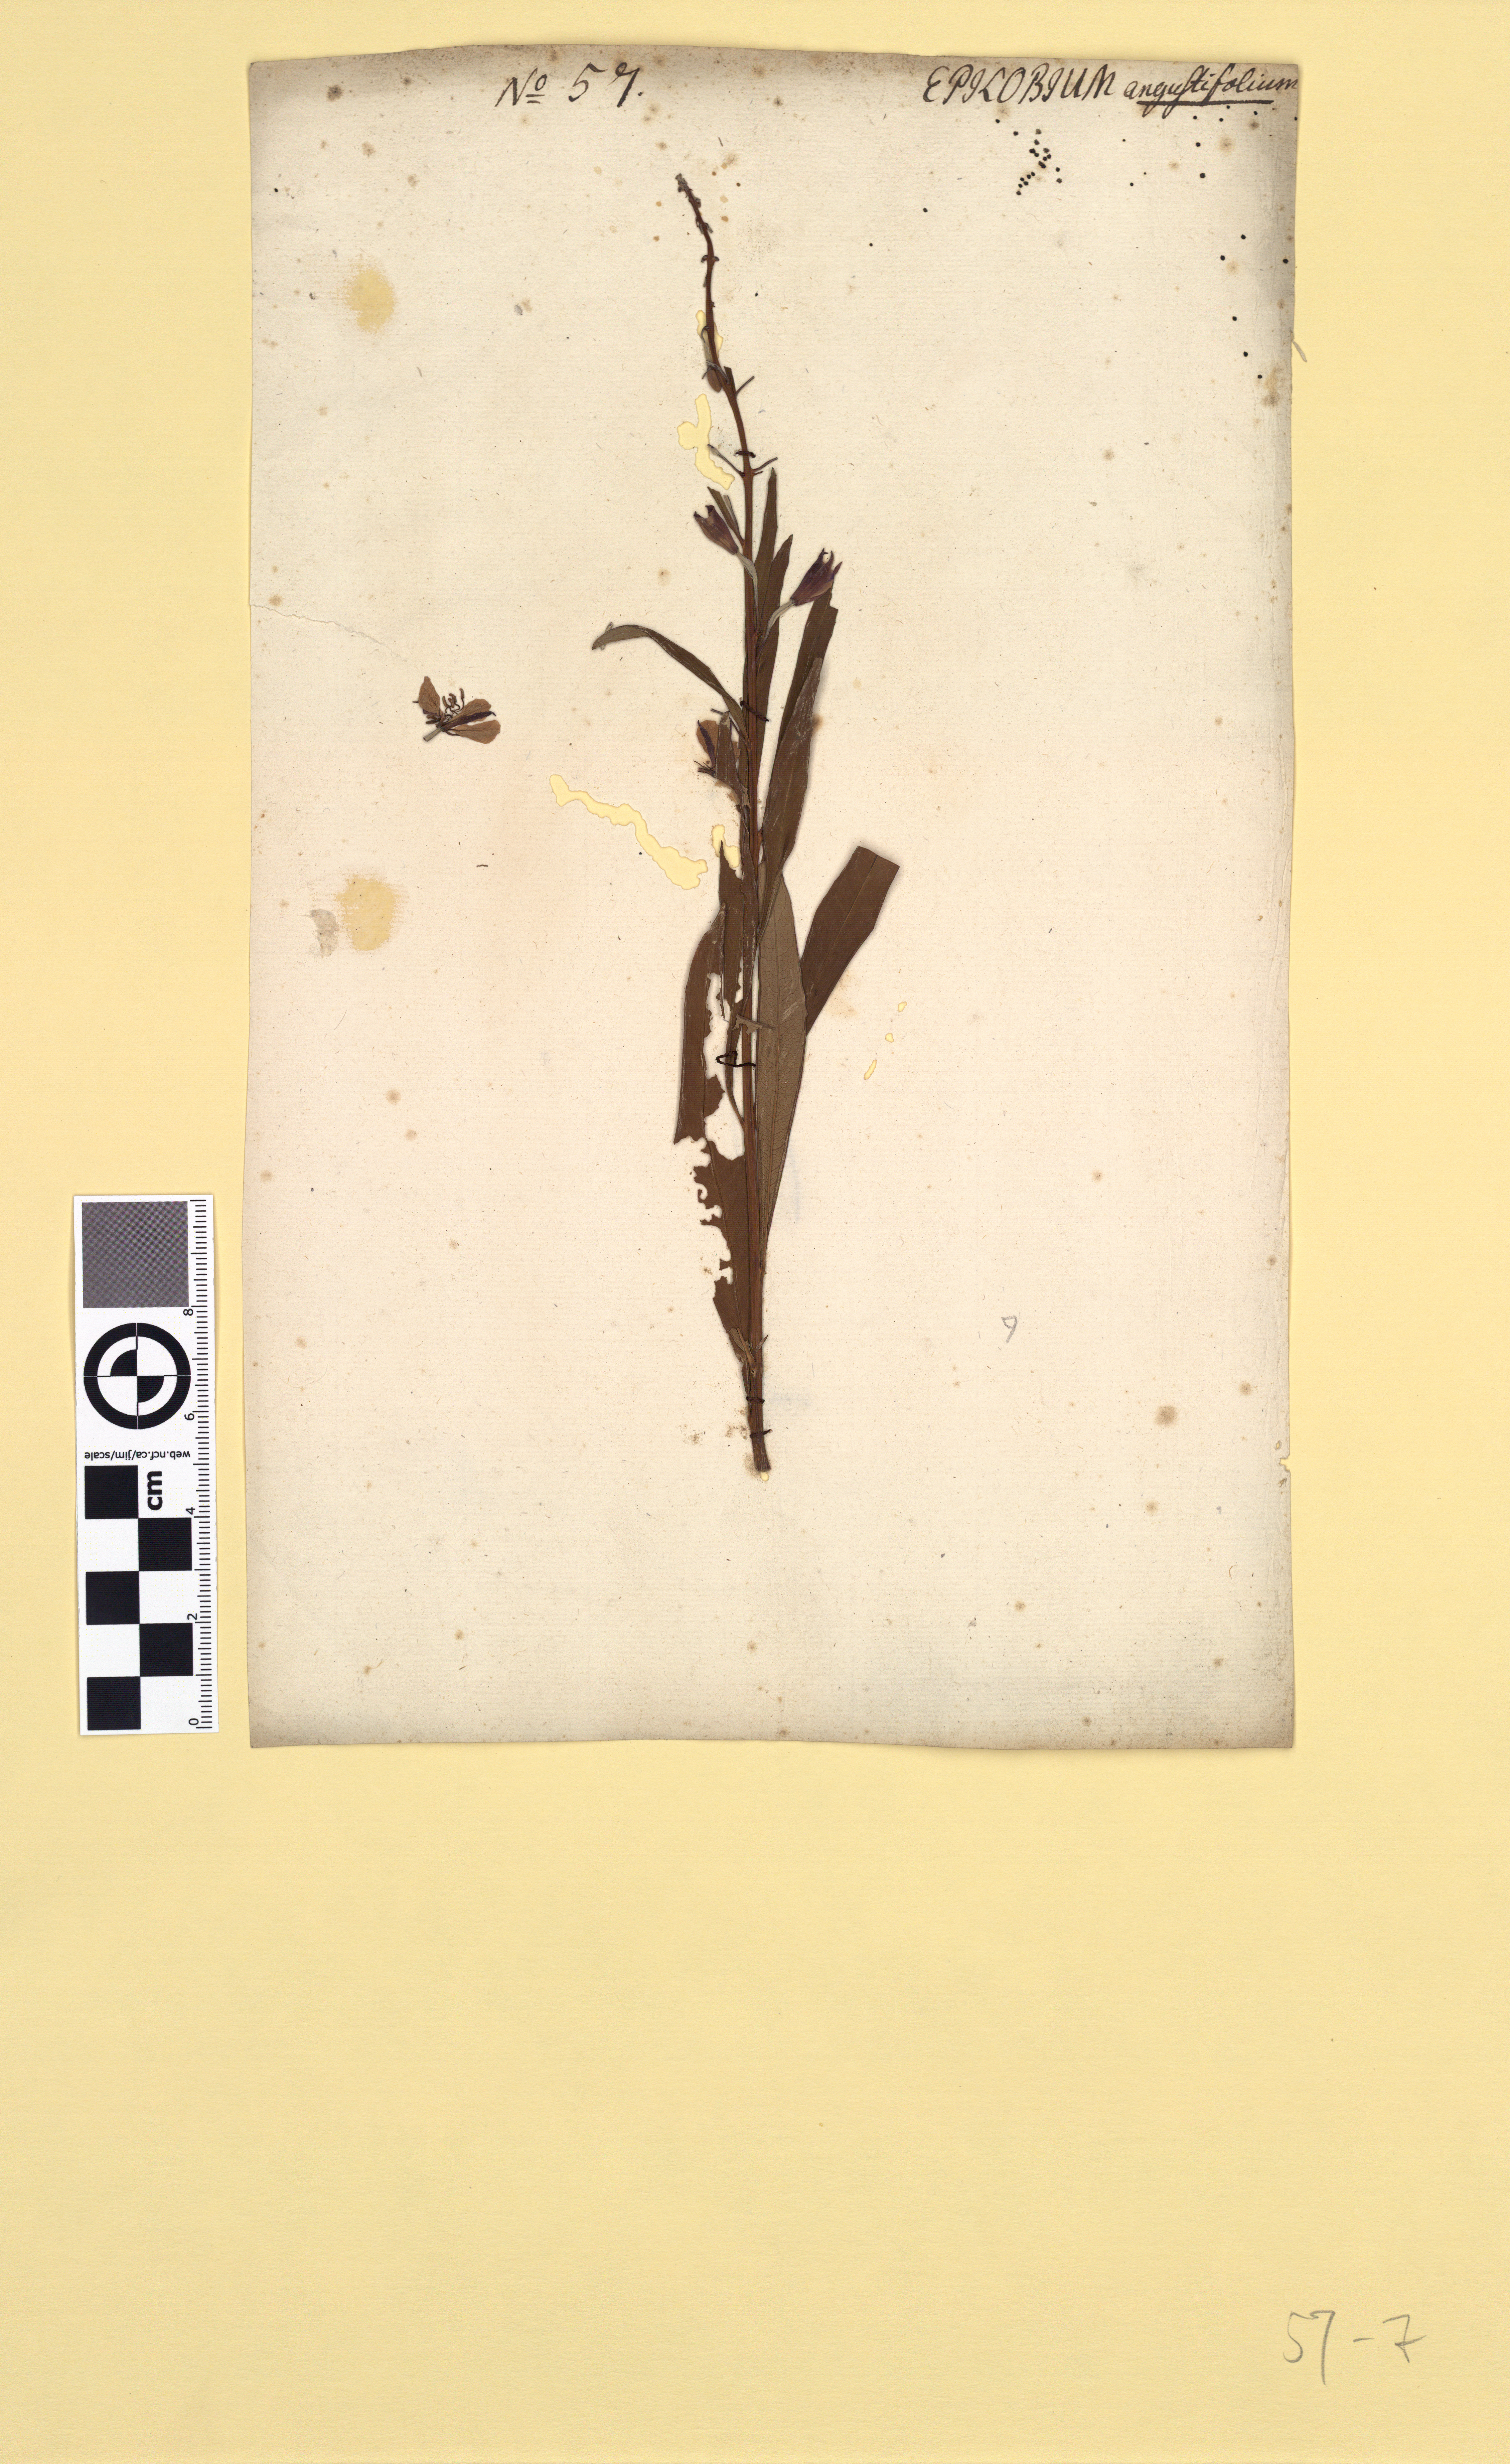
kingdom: Plantae
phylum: Tracheophyta
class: Magnoliopsida
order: Myrtales
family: Onagraceae
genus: Chamaenerion
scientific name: Chamaenerion angustifolium
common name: Fireweed
